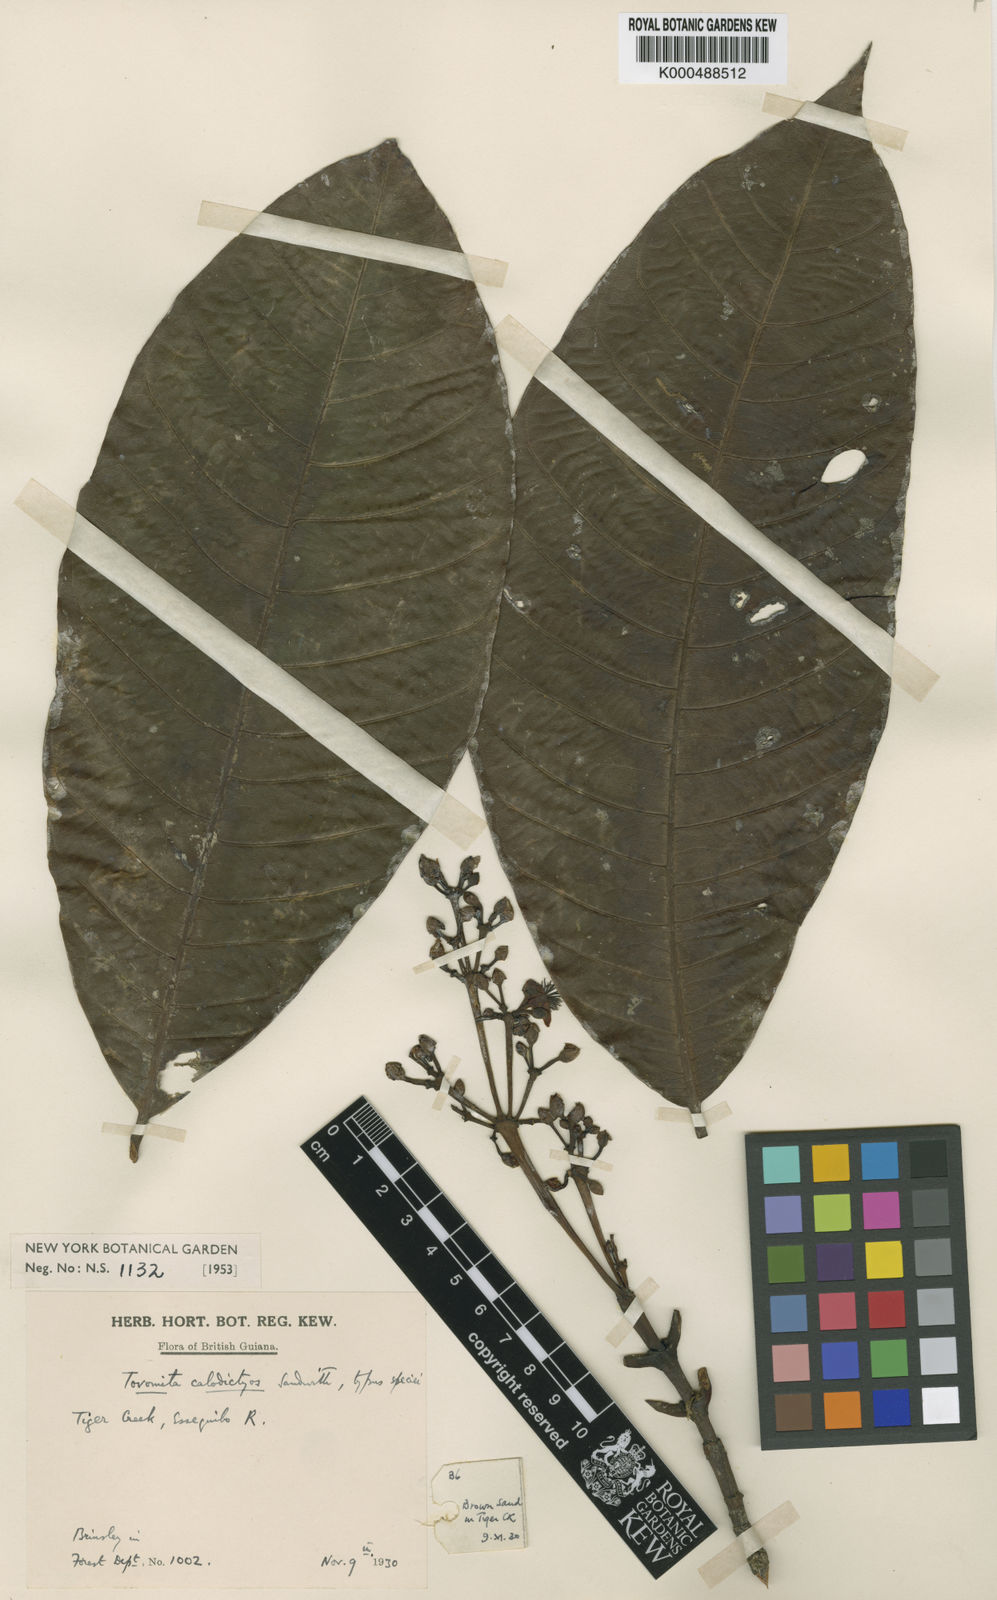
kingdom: Plantae
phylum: Tracheophyta
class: Magnoliopsida
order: Malpighiales
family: Clusiaceae
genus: Tovomita
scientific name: Tovomita calodictyos
